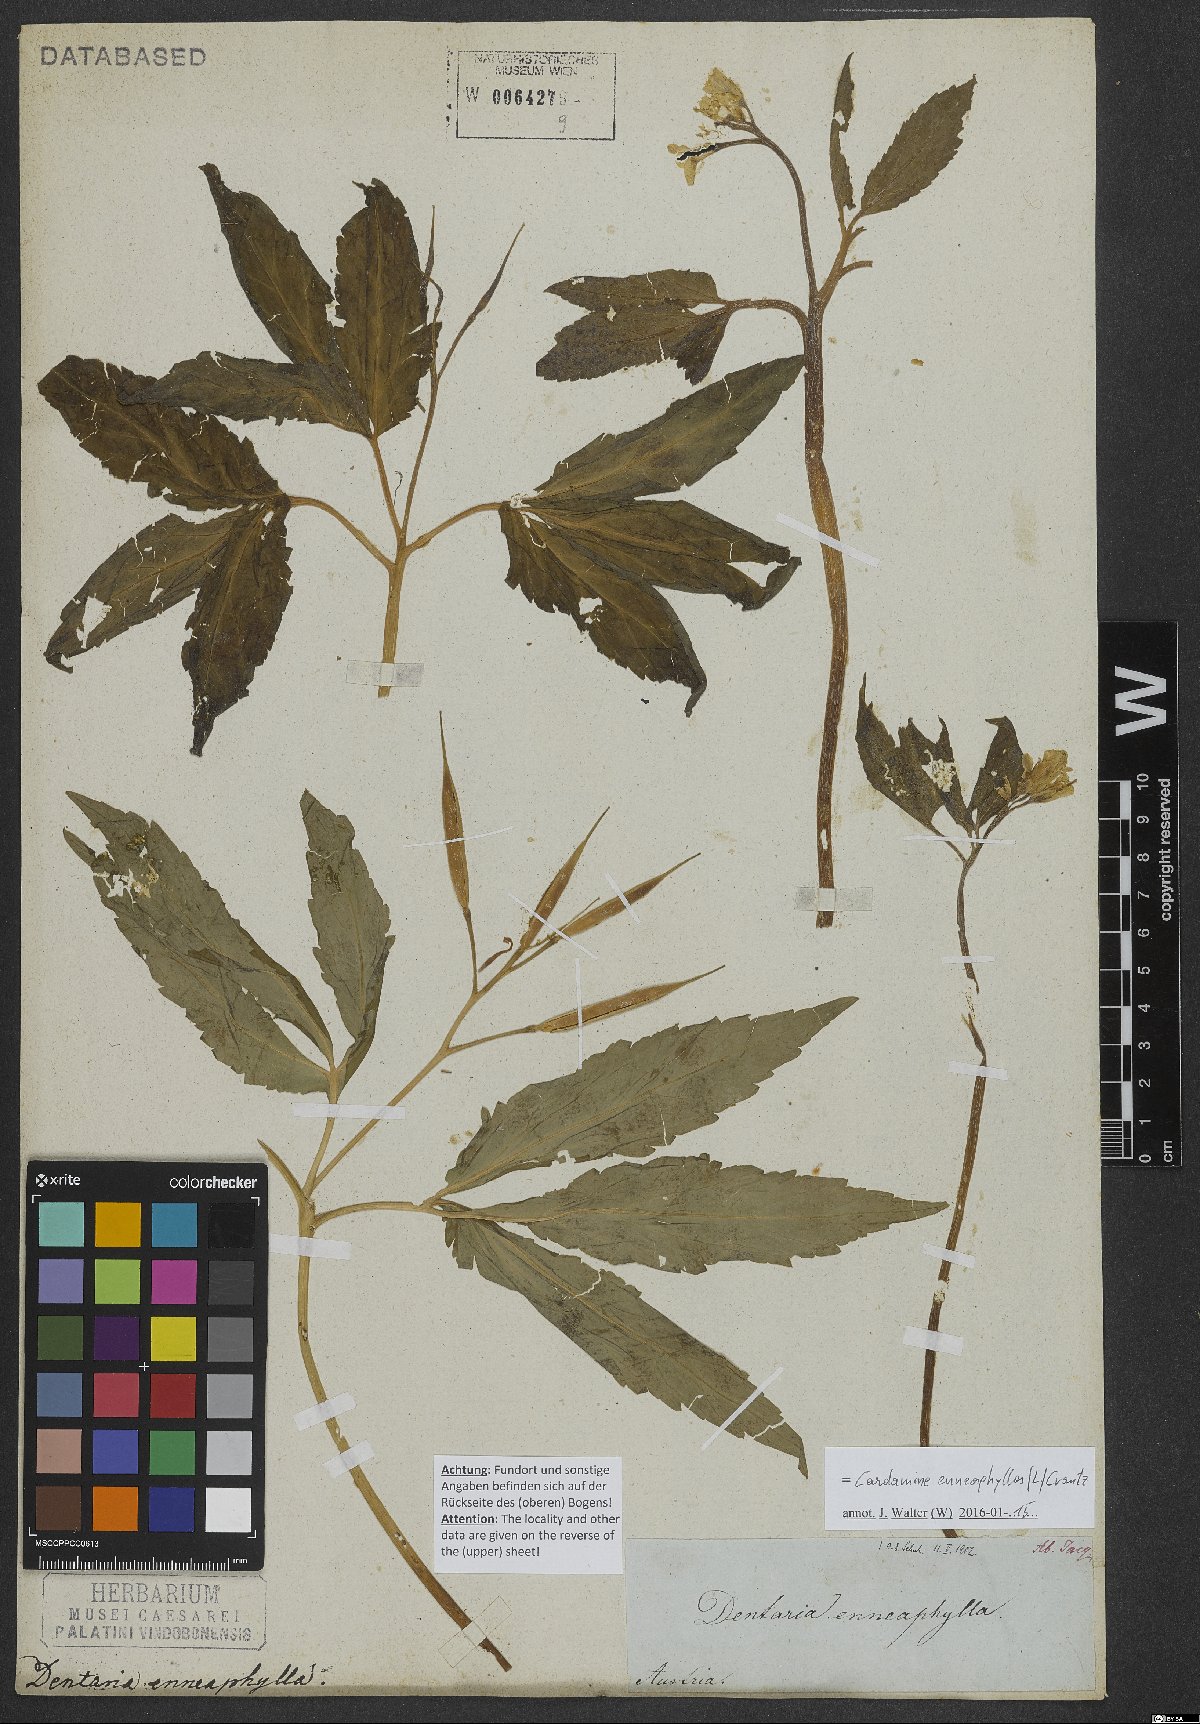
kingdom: Plantae
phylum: Tracheophyta
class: Magnoliopsida
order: Brassicales
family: Brassicaceae
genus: Cardamine
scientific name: Cardamine enneaphyllos
